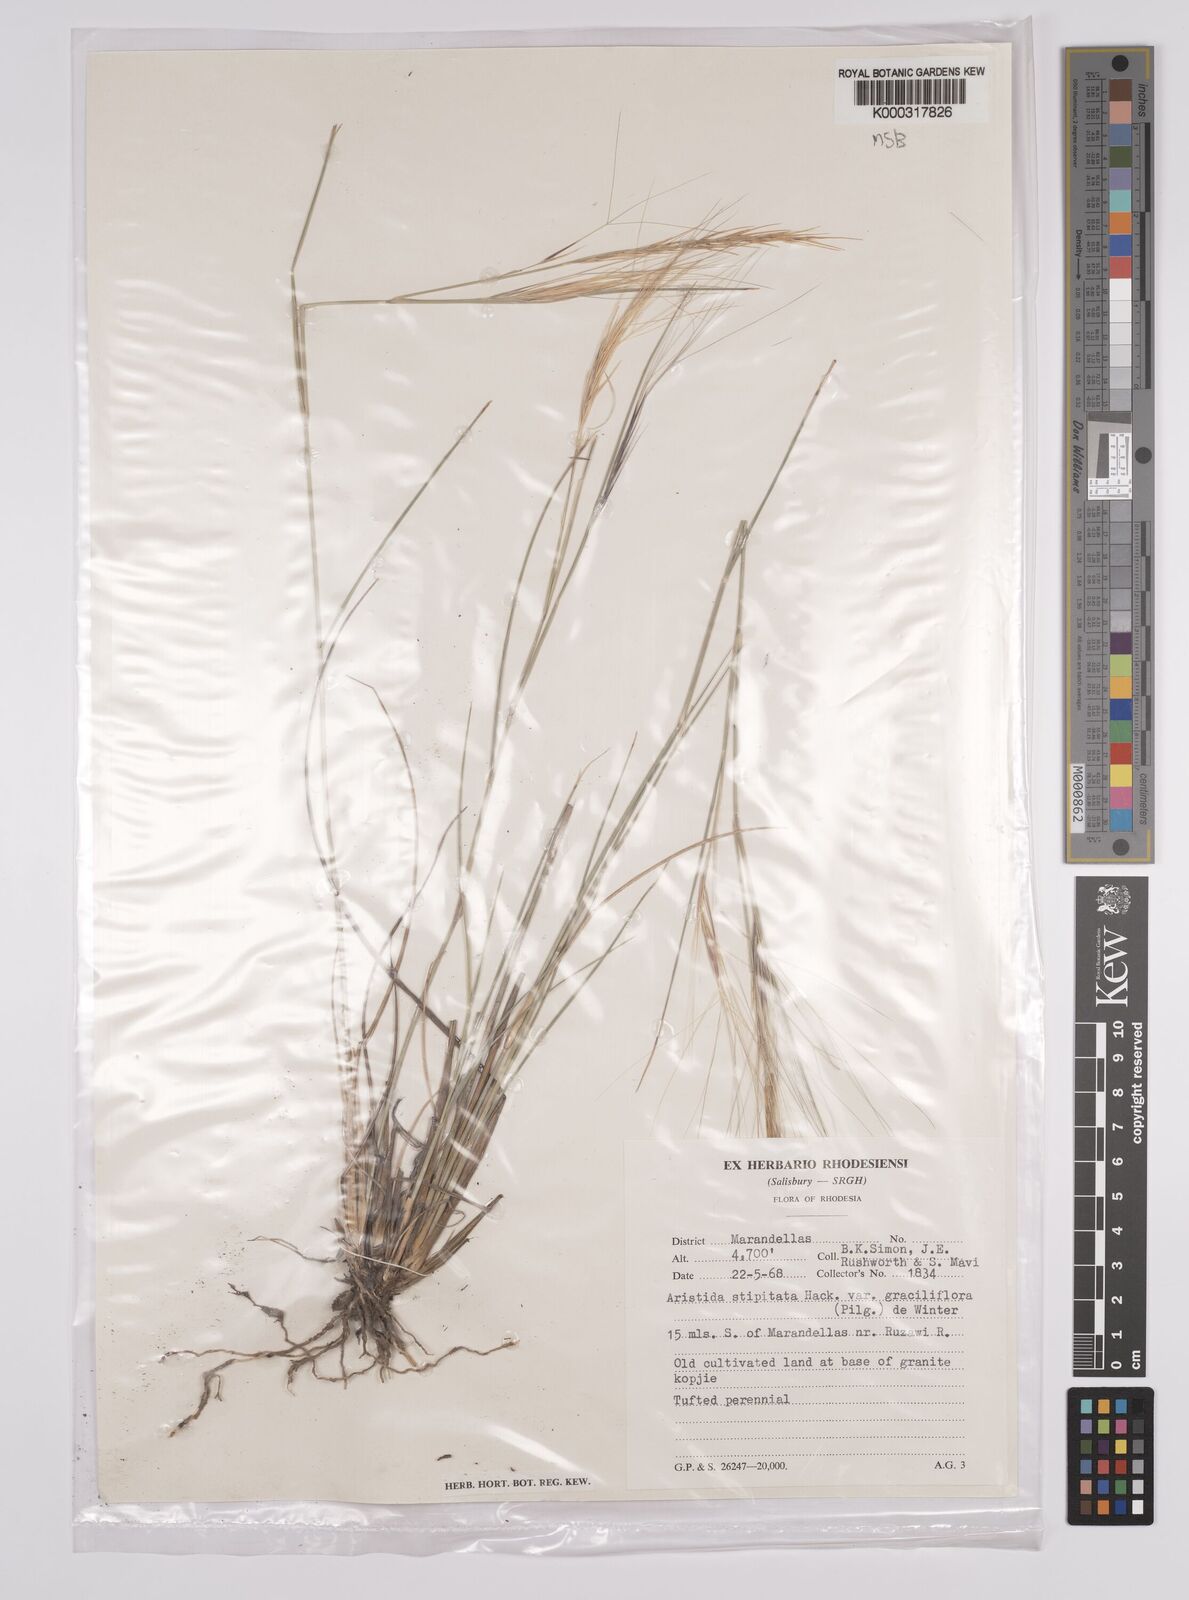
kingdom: Plantae
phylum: Tracheophyta
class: Liliopsida
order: Poales
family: Poaceae
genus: Aristida
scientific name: Aristida stipitata
